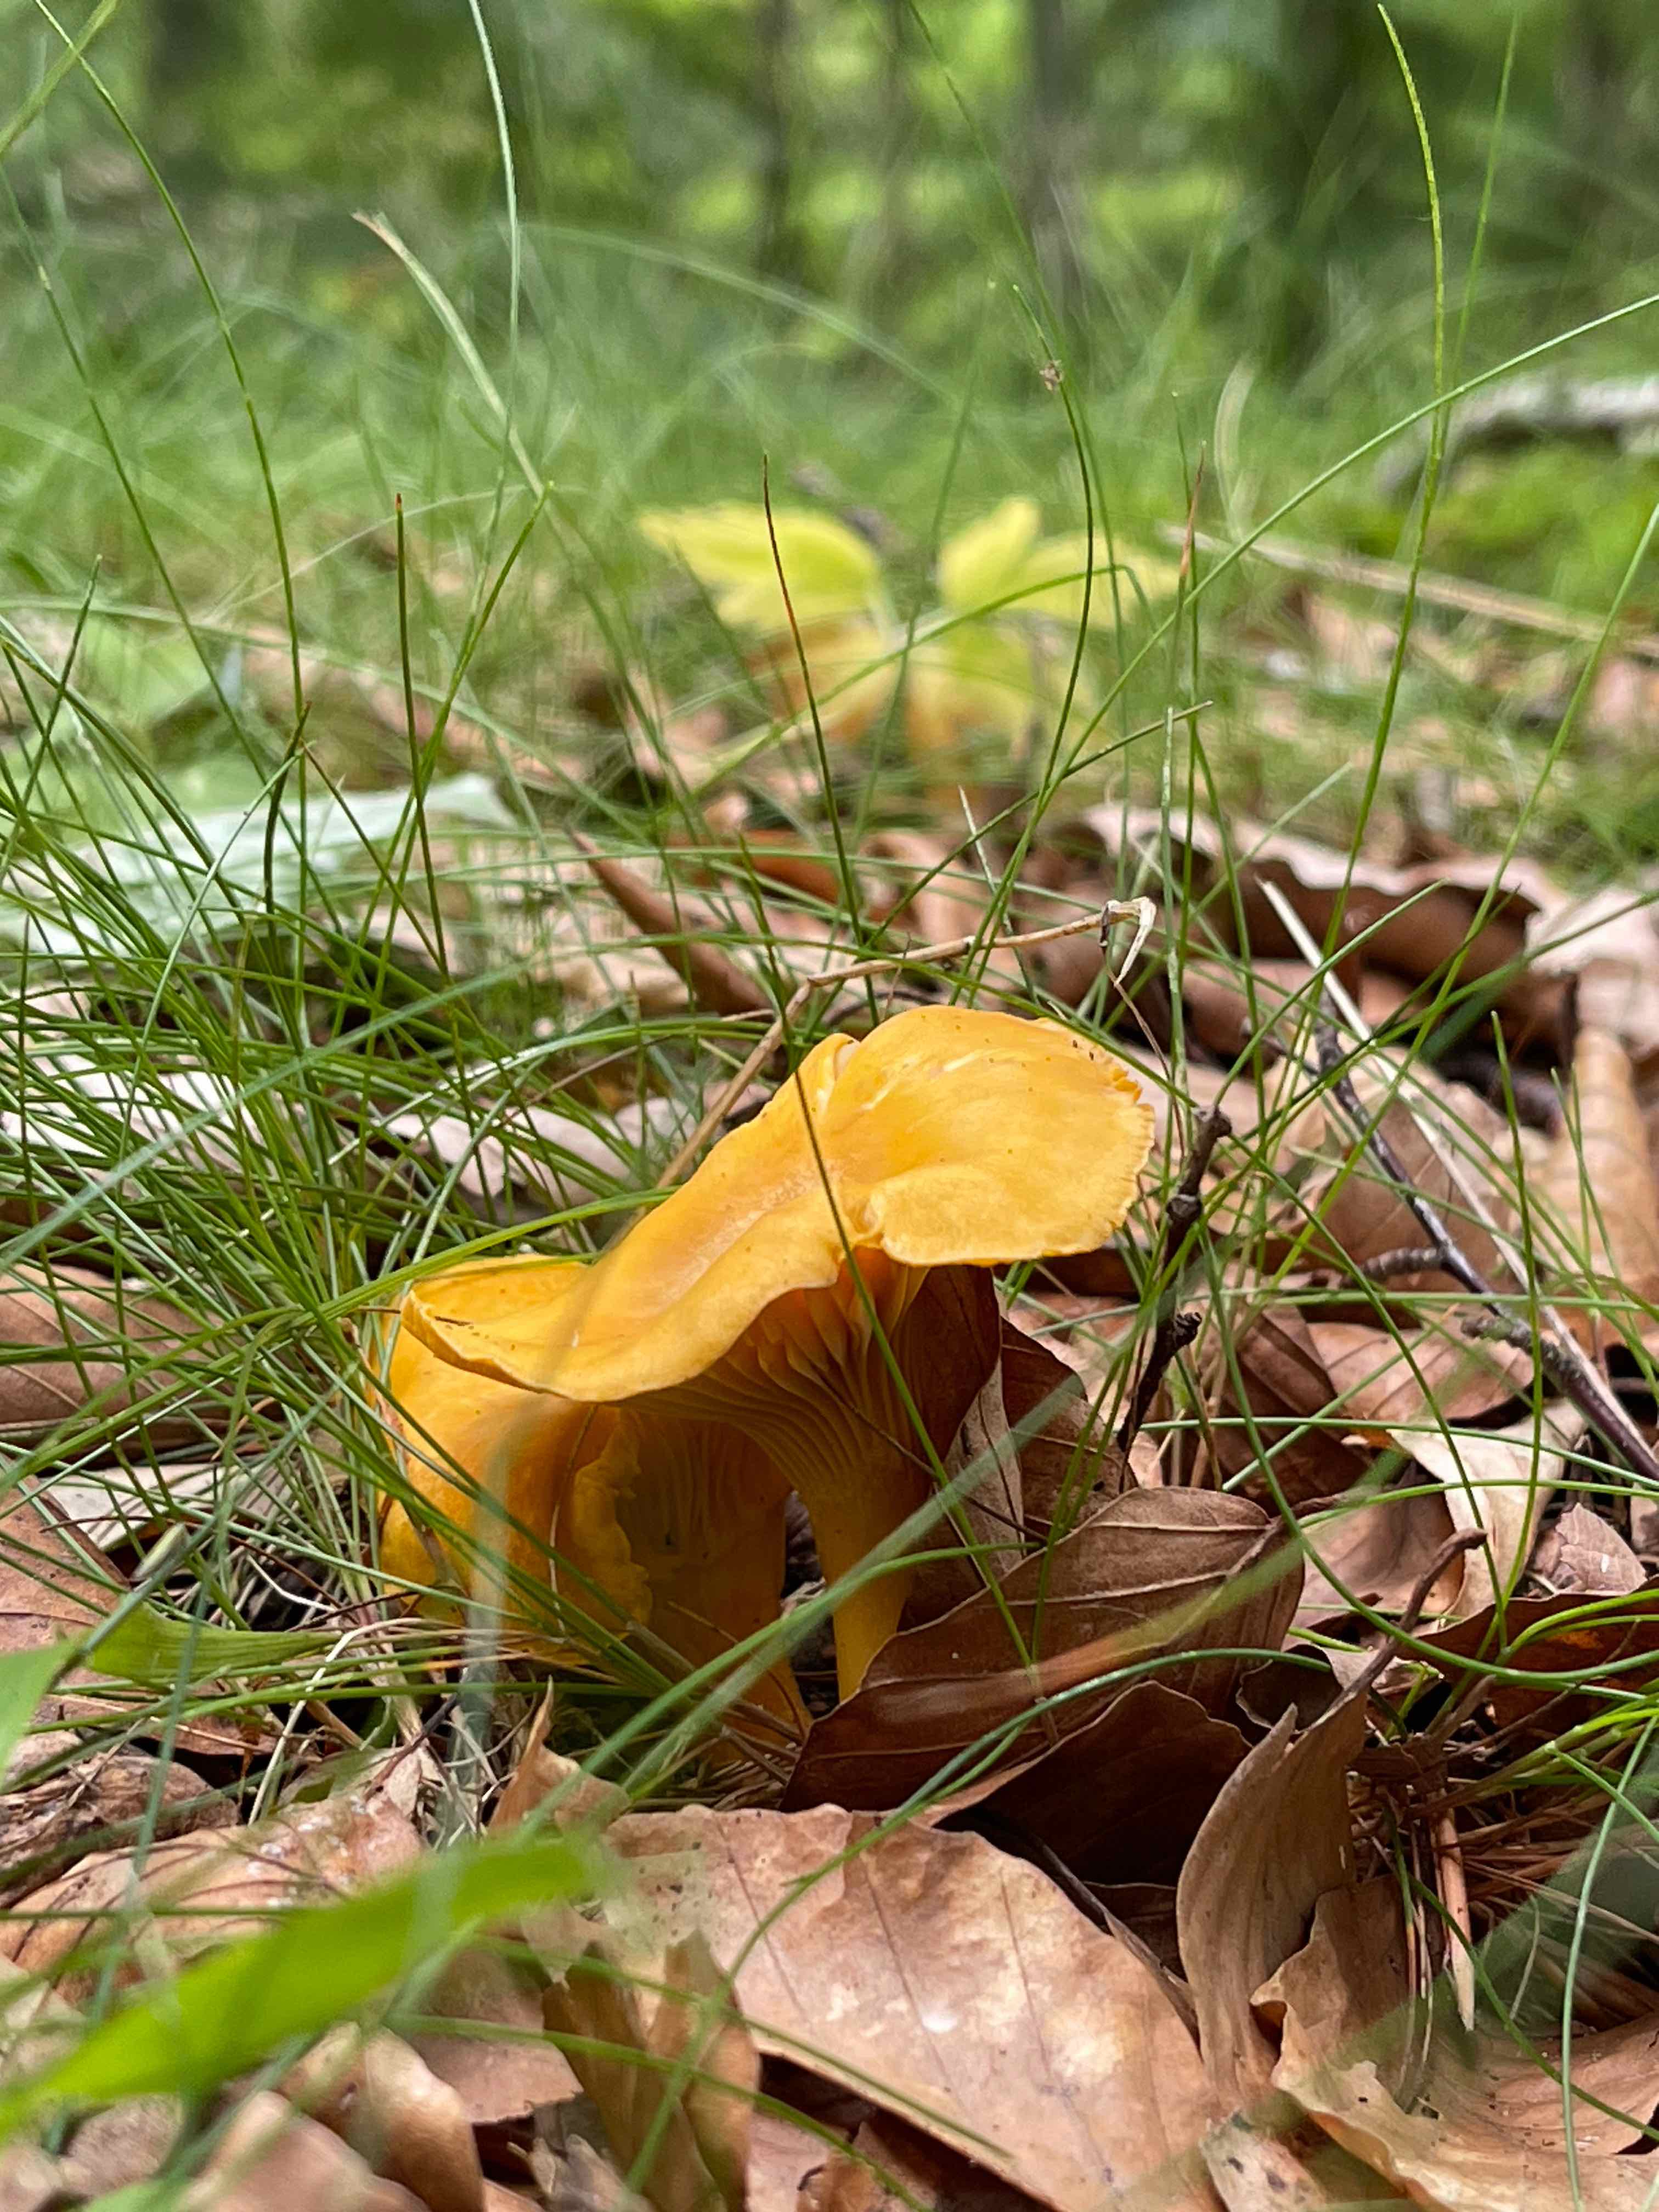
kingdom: Fungi
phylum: Basidiomycota
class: Agaricomycetes
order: Cantharellales
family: Hydnaceae
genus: Cantharellus
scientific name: Cantharellus cibarius
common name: almindelig kantarel
